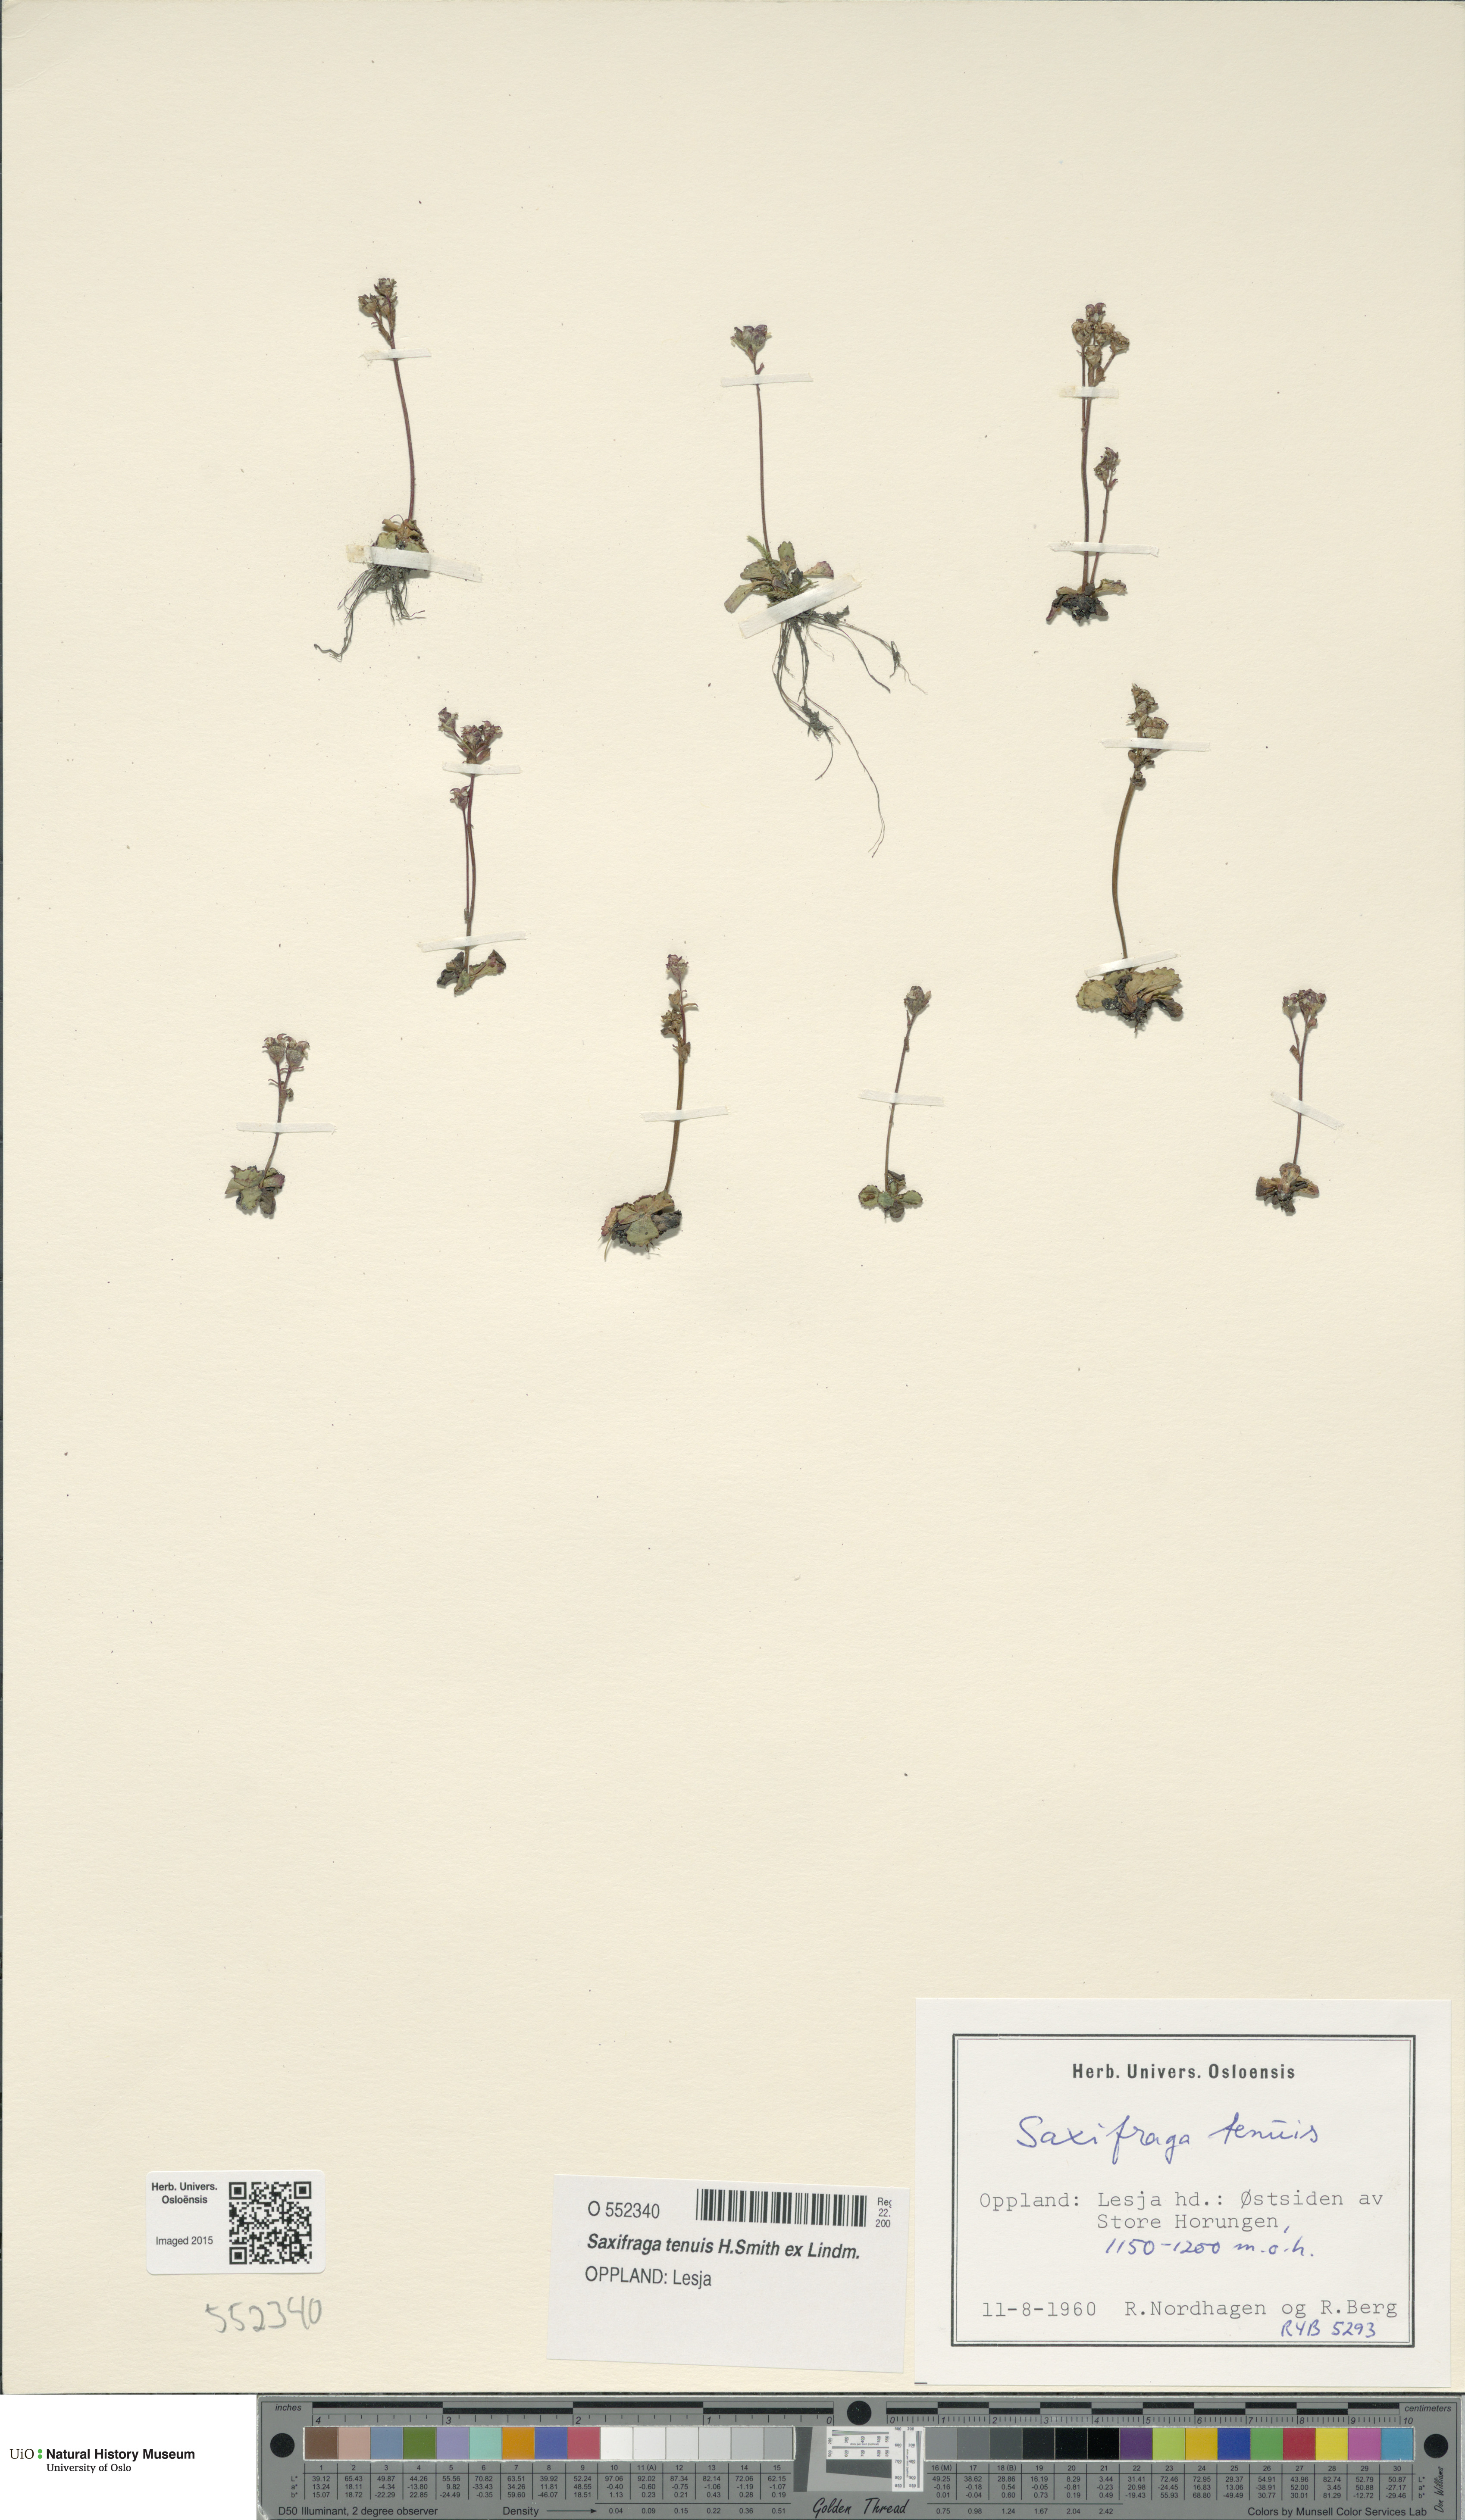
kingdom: Plantae
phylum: Tracheophyta
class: Magnoliopsida
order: Saxifragales
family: Saxifragaceae
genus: Micranthes
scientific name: Micranthes tenuis
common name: Ottertail pass saxifrage
